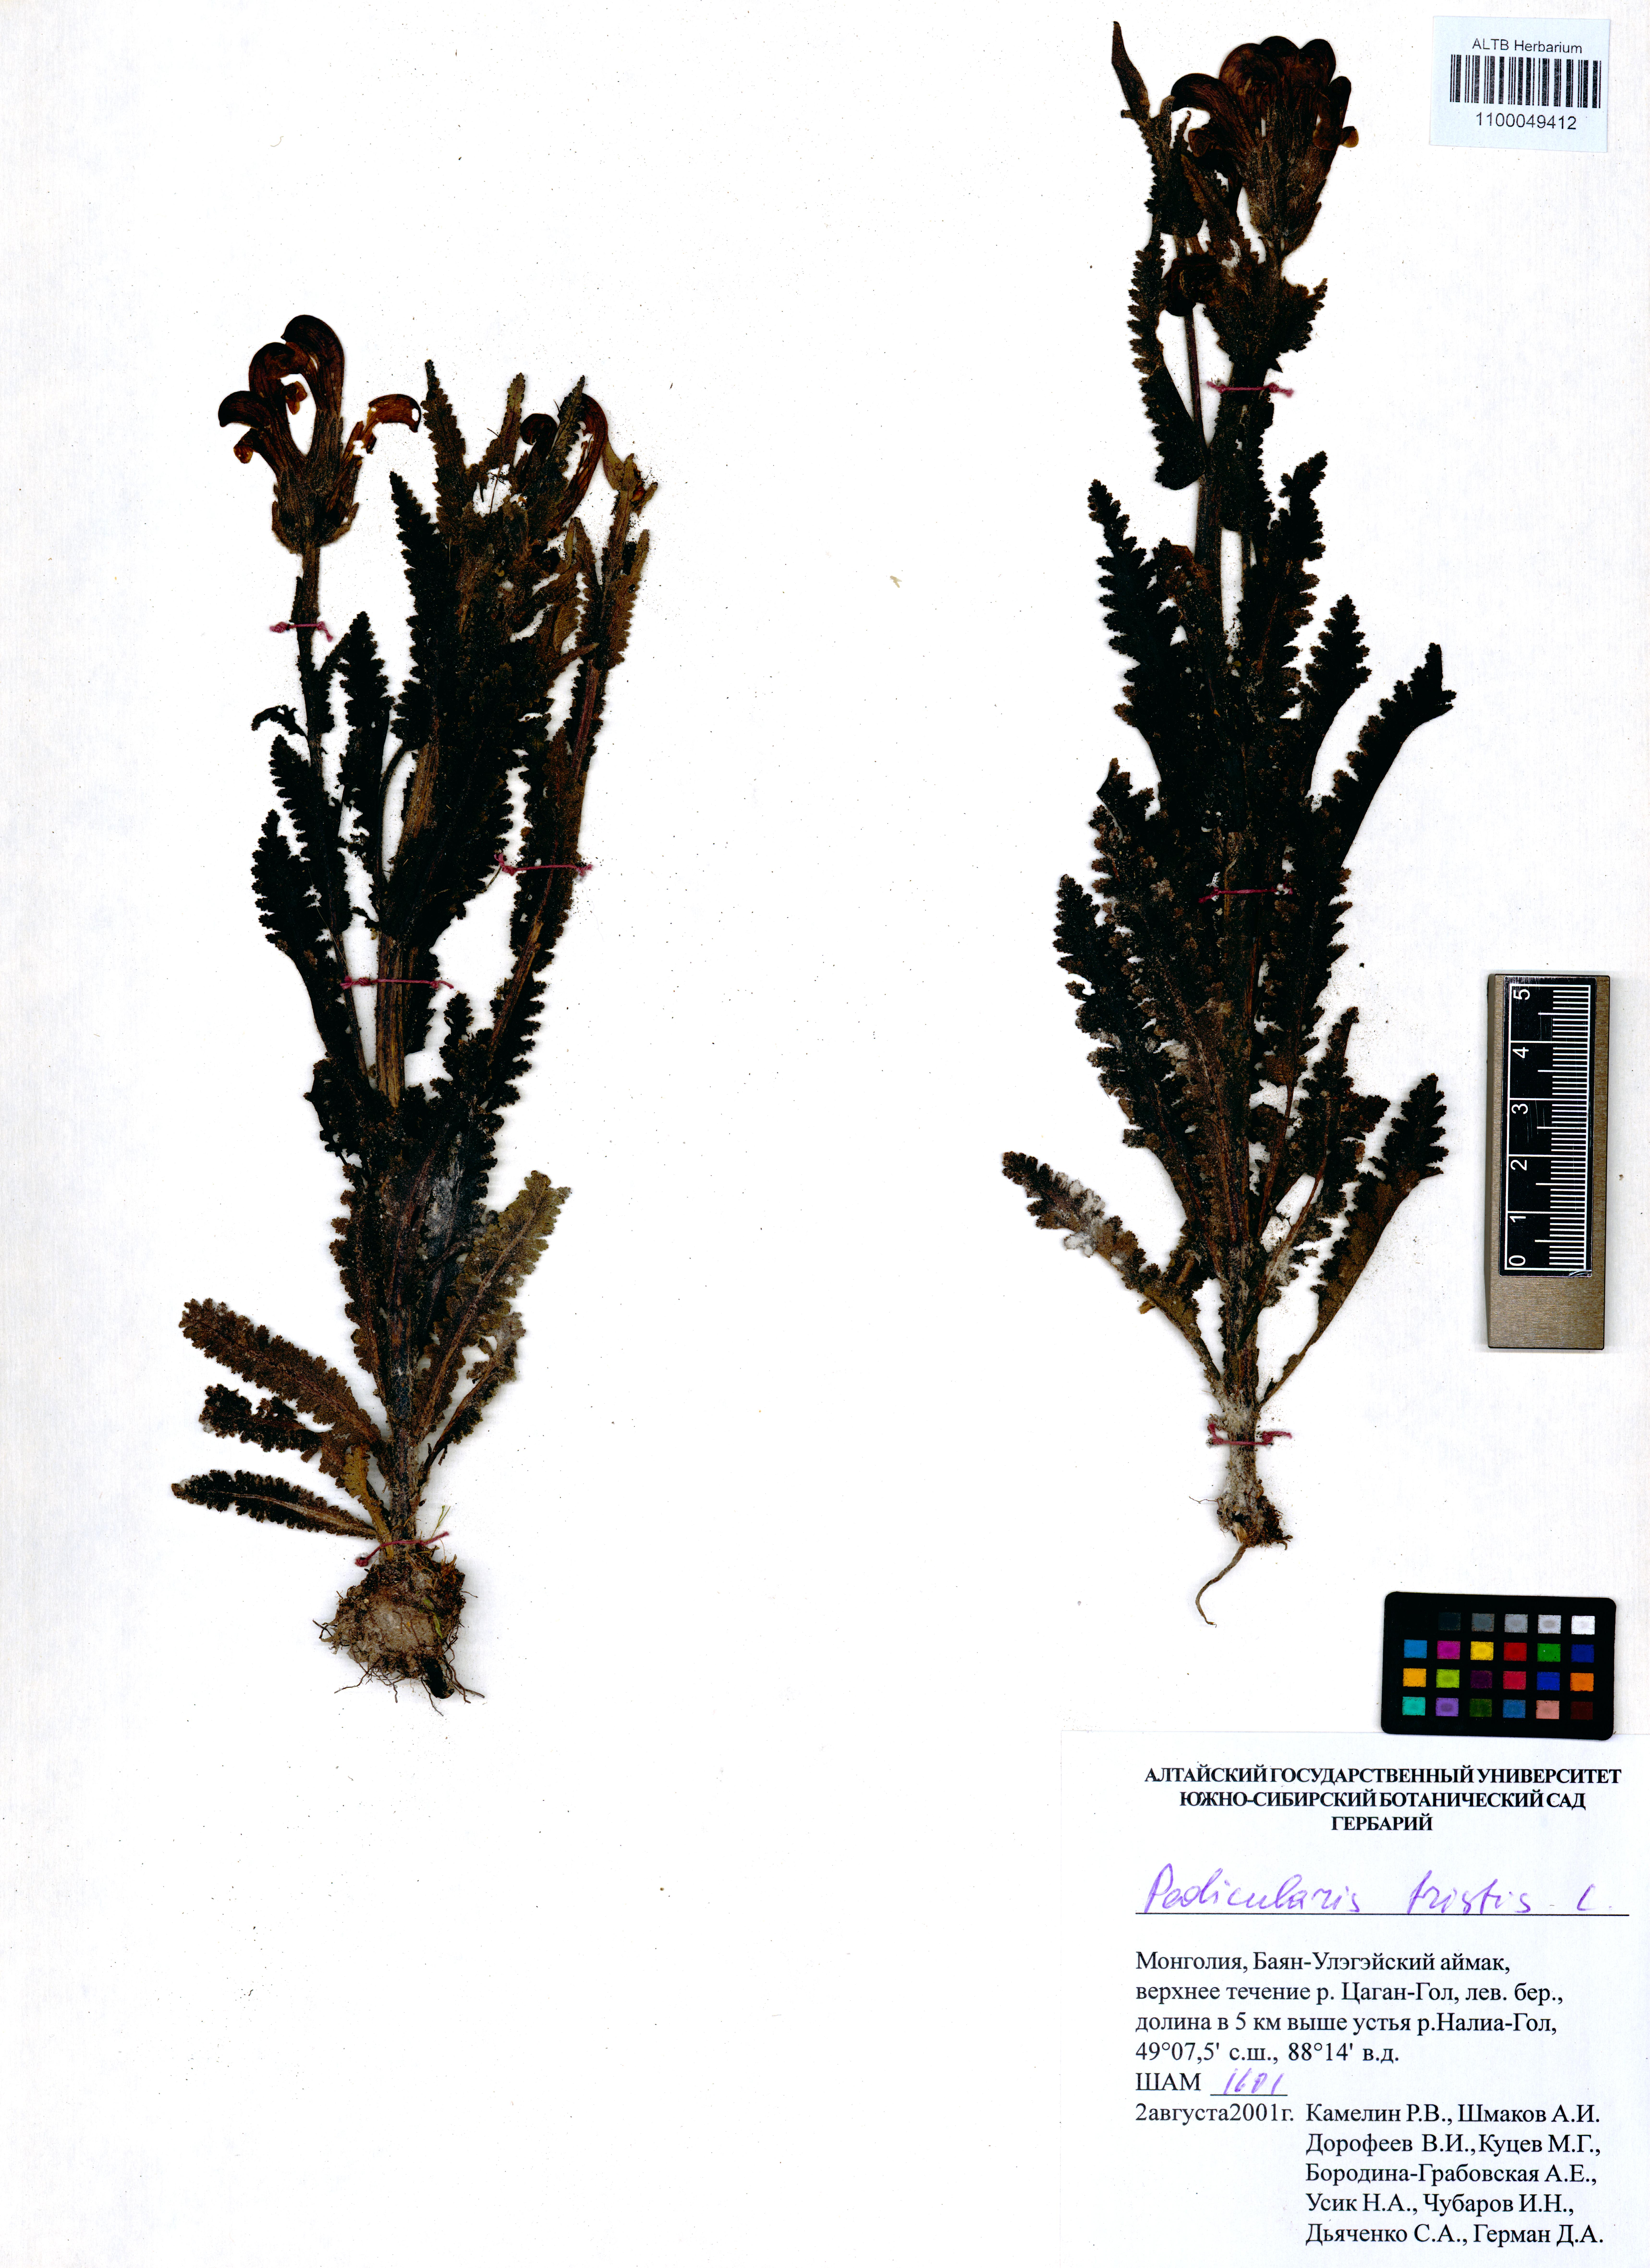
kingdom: Plantae
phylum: Tracheophyta
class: Magnoliopsida
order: Lamiales
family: Orobanchaceae
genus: Pedicularis
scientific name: Pedicularis tristis
